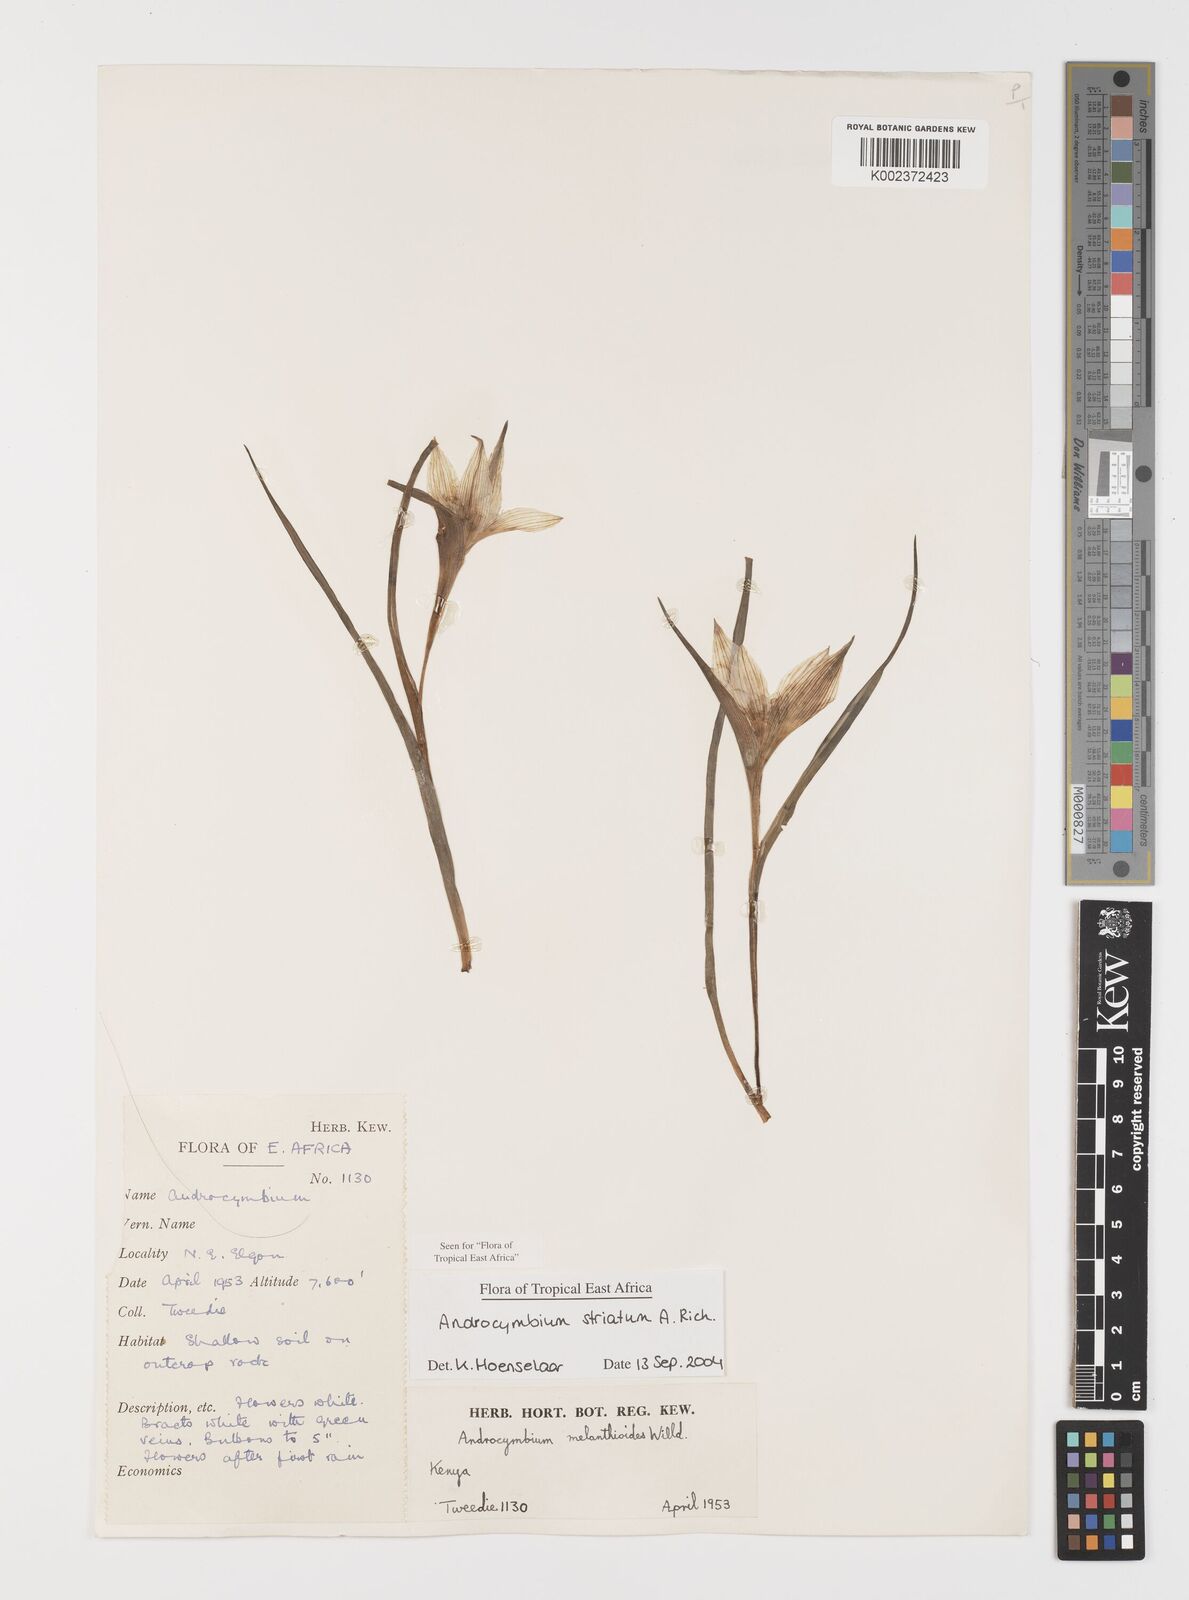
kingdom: Plantae
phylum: Tracheophyta
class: Liliopsida
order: Liliales
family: Colchicaceae
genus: Colchicum
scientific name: Colchicum striatum
